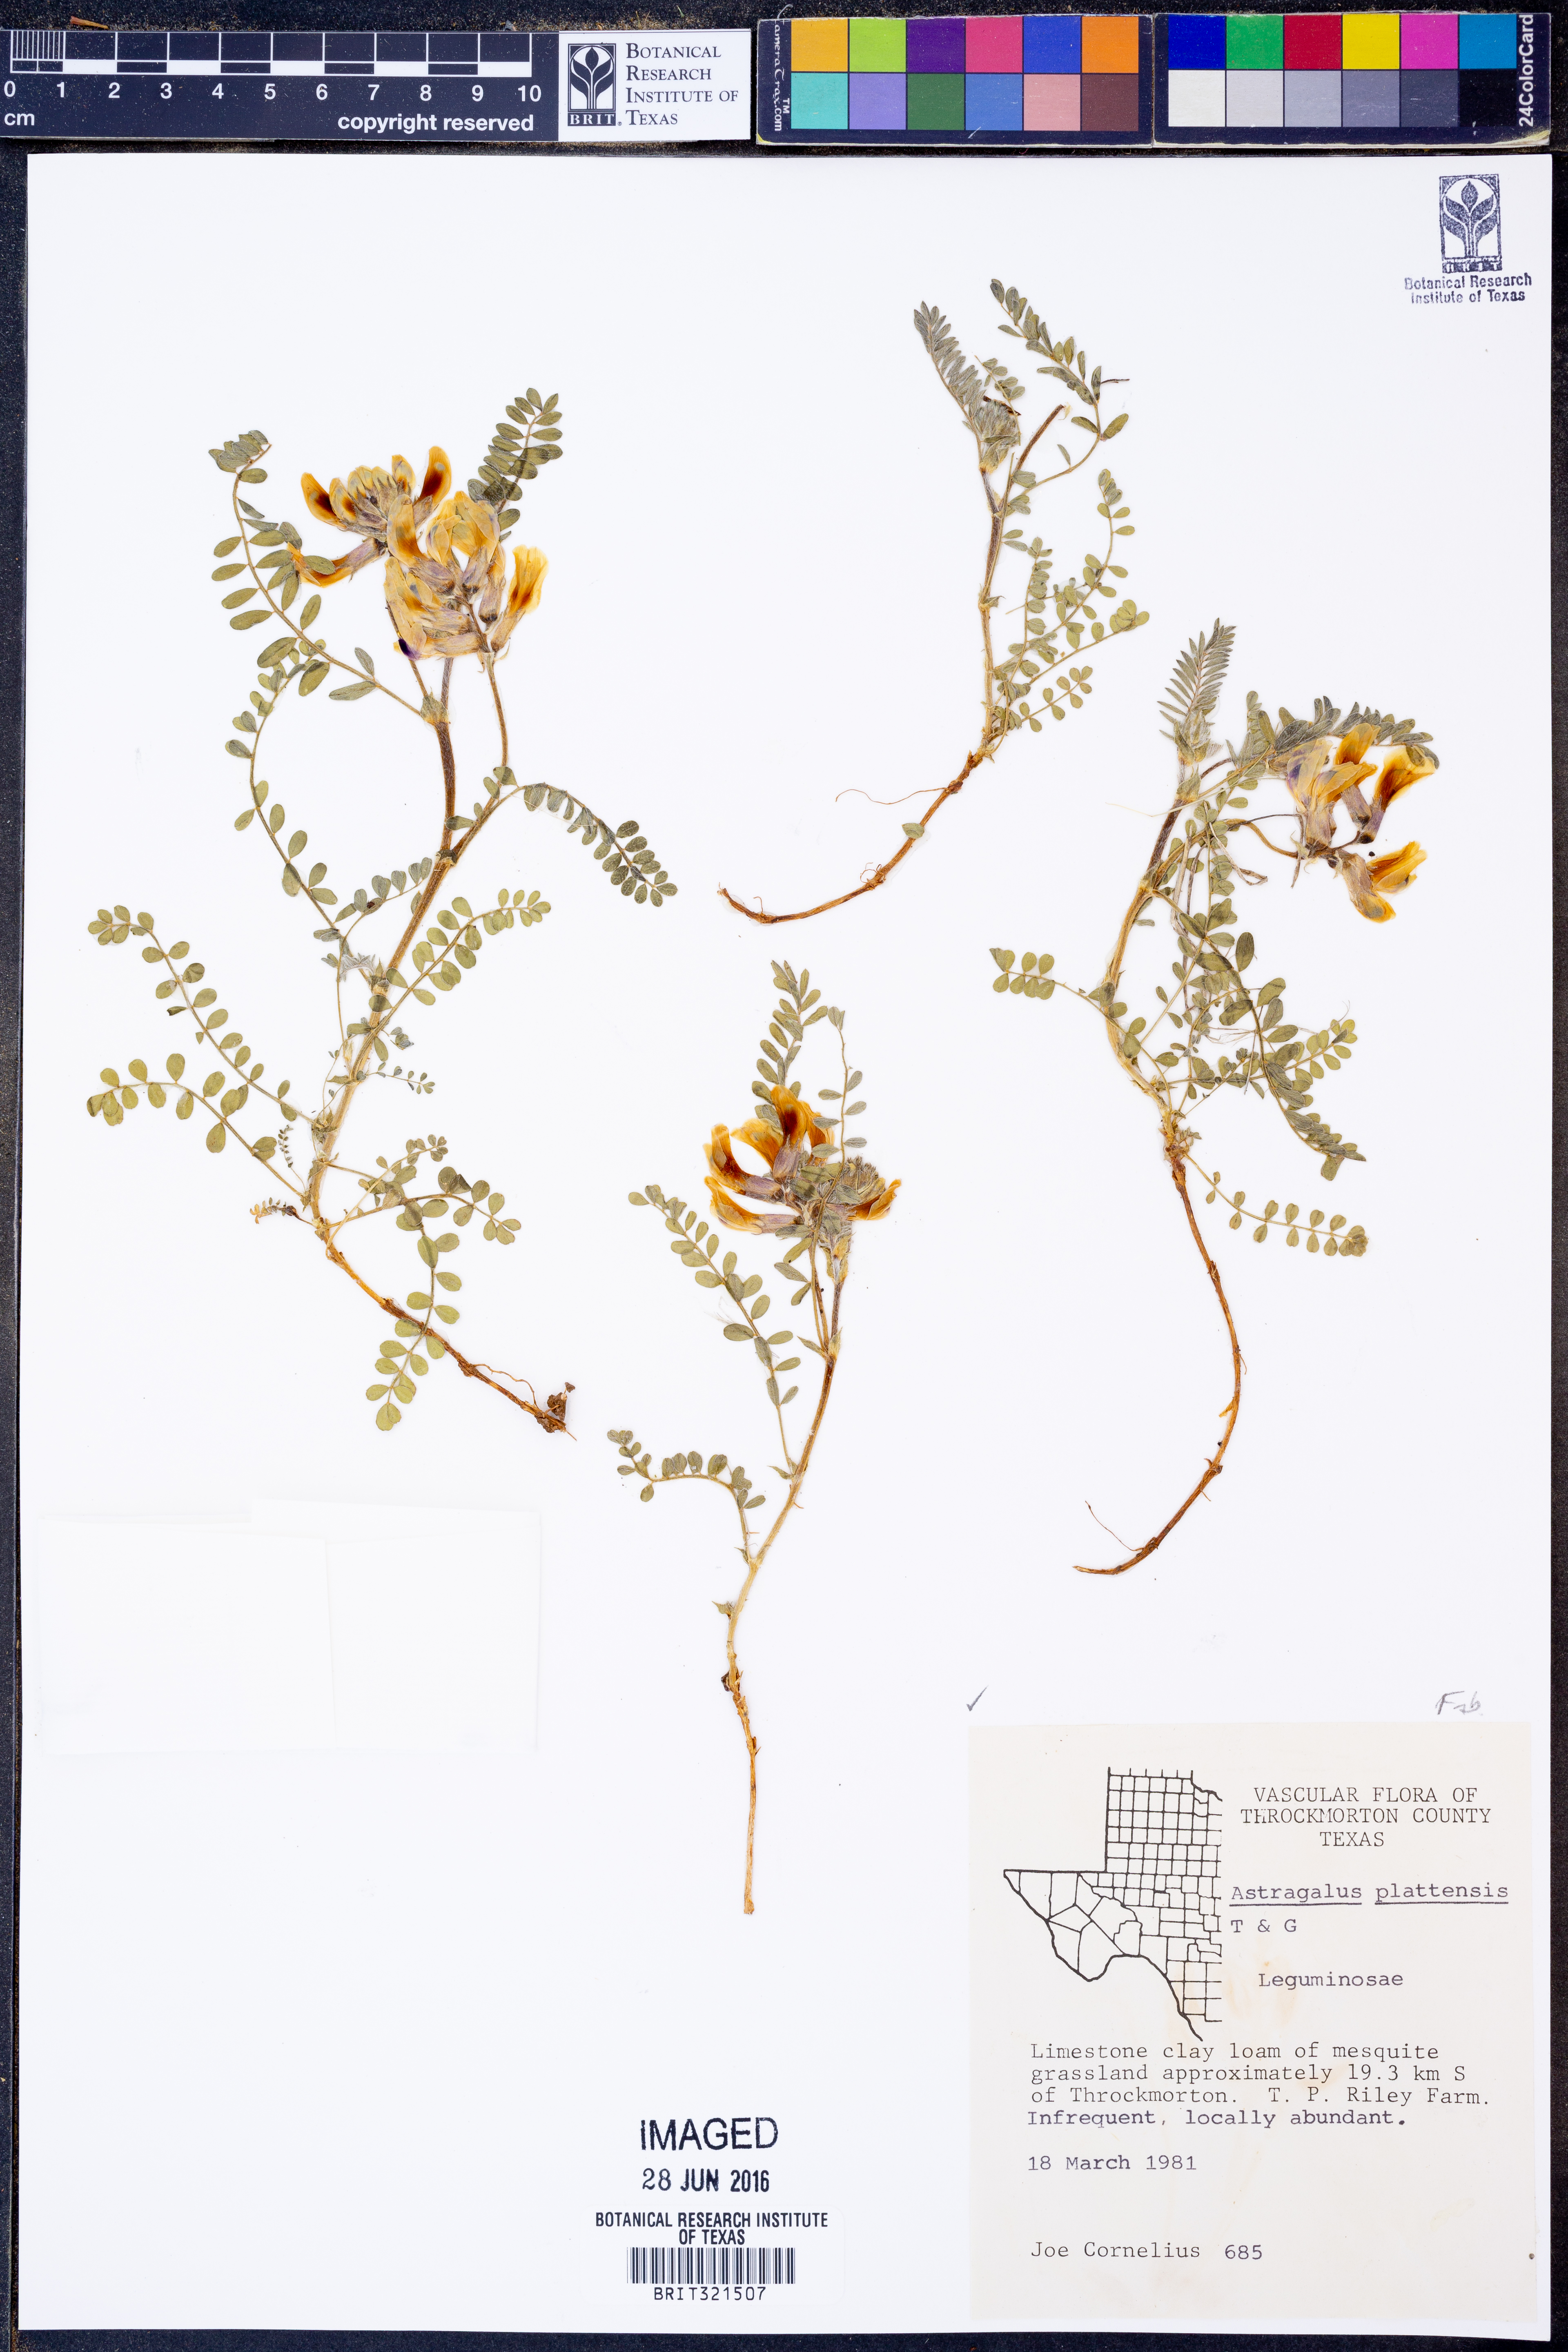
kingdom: Plantae
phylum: Tracheophyta
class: Magnoliopsida
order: Fabales
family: Fabaceae
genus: Astragalus
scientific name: Astragalus plattensis
